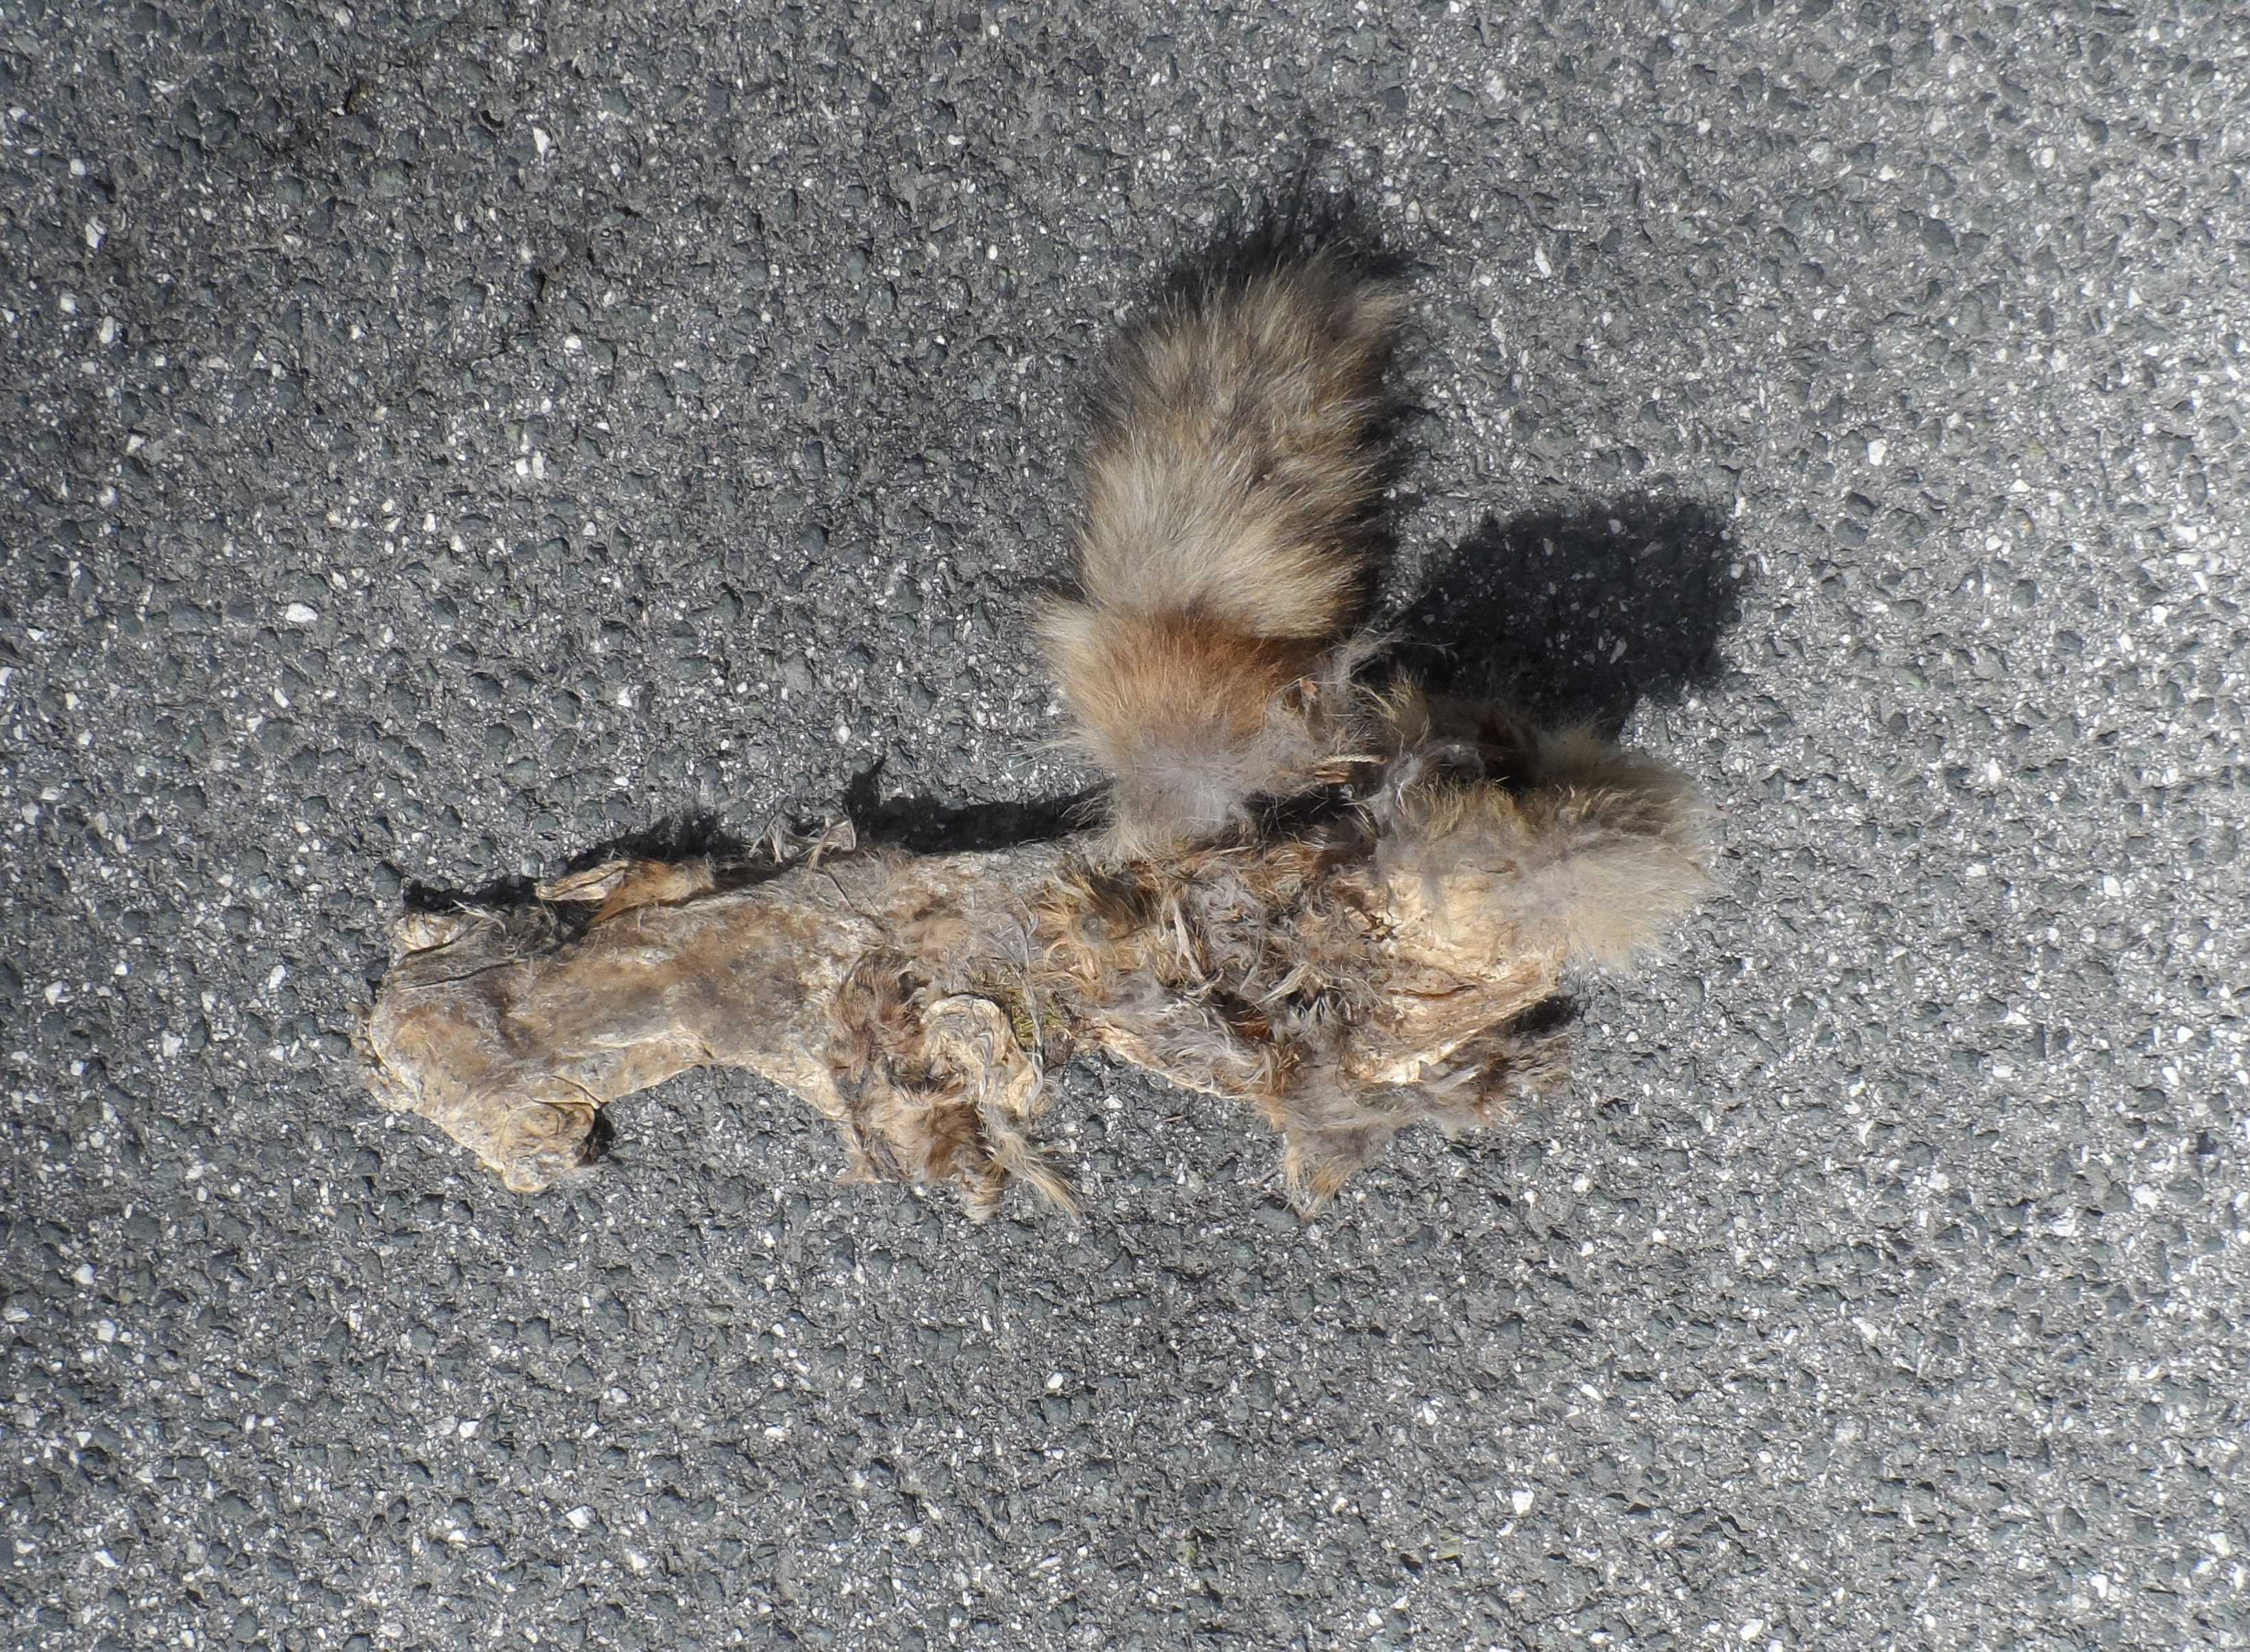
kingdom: Animalia
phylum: Chordata
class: Mammalia
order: Carnivora
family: Canidae
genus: Vulpes
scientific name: Vulpes vulpes
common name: Red fox
